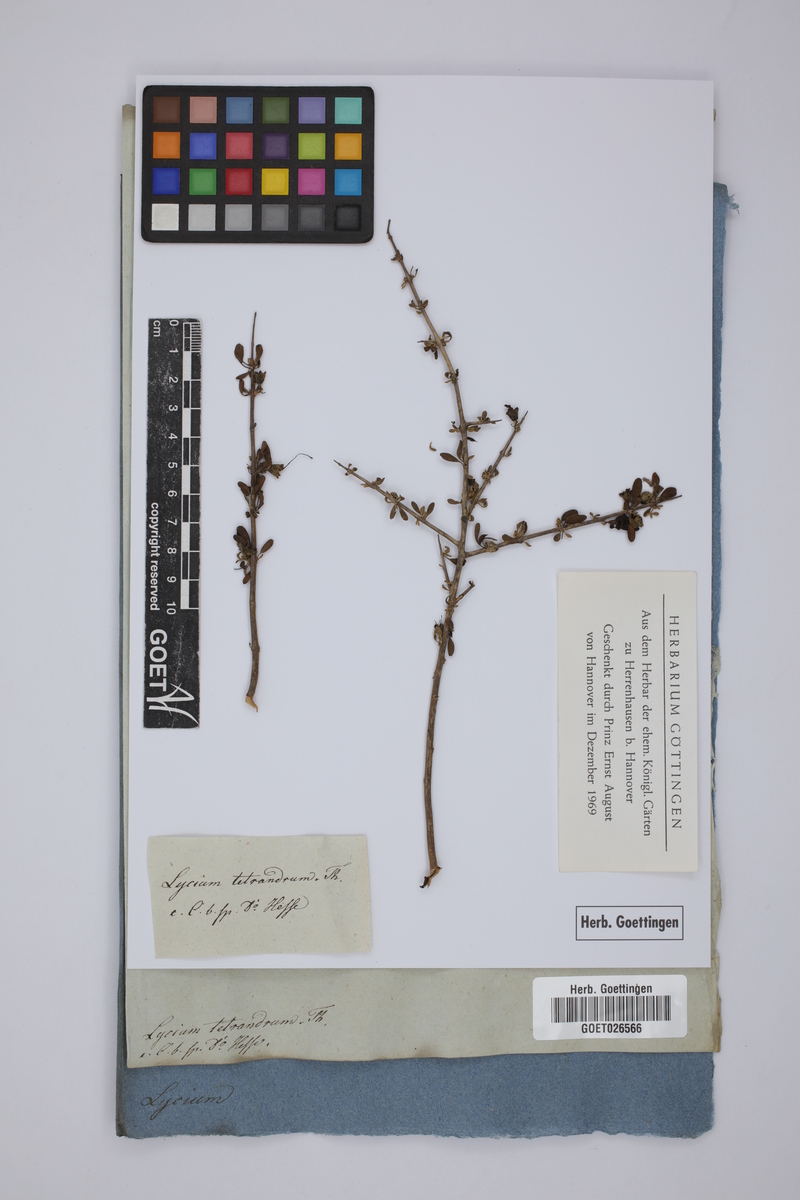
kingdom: Plantae
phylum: Tracheophyta
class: Magnoliopsida
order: Solanales
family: Solanaceae
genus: Lycium
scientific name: Lycium tetrandrum
